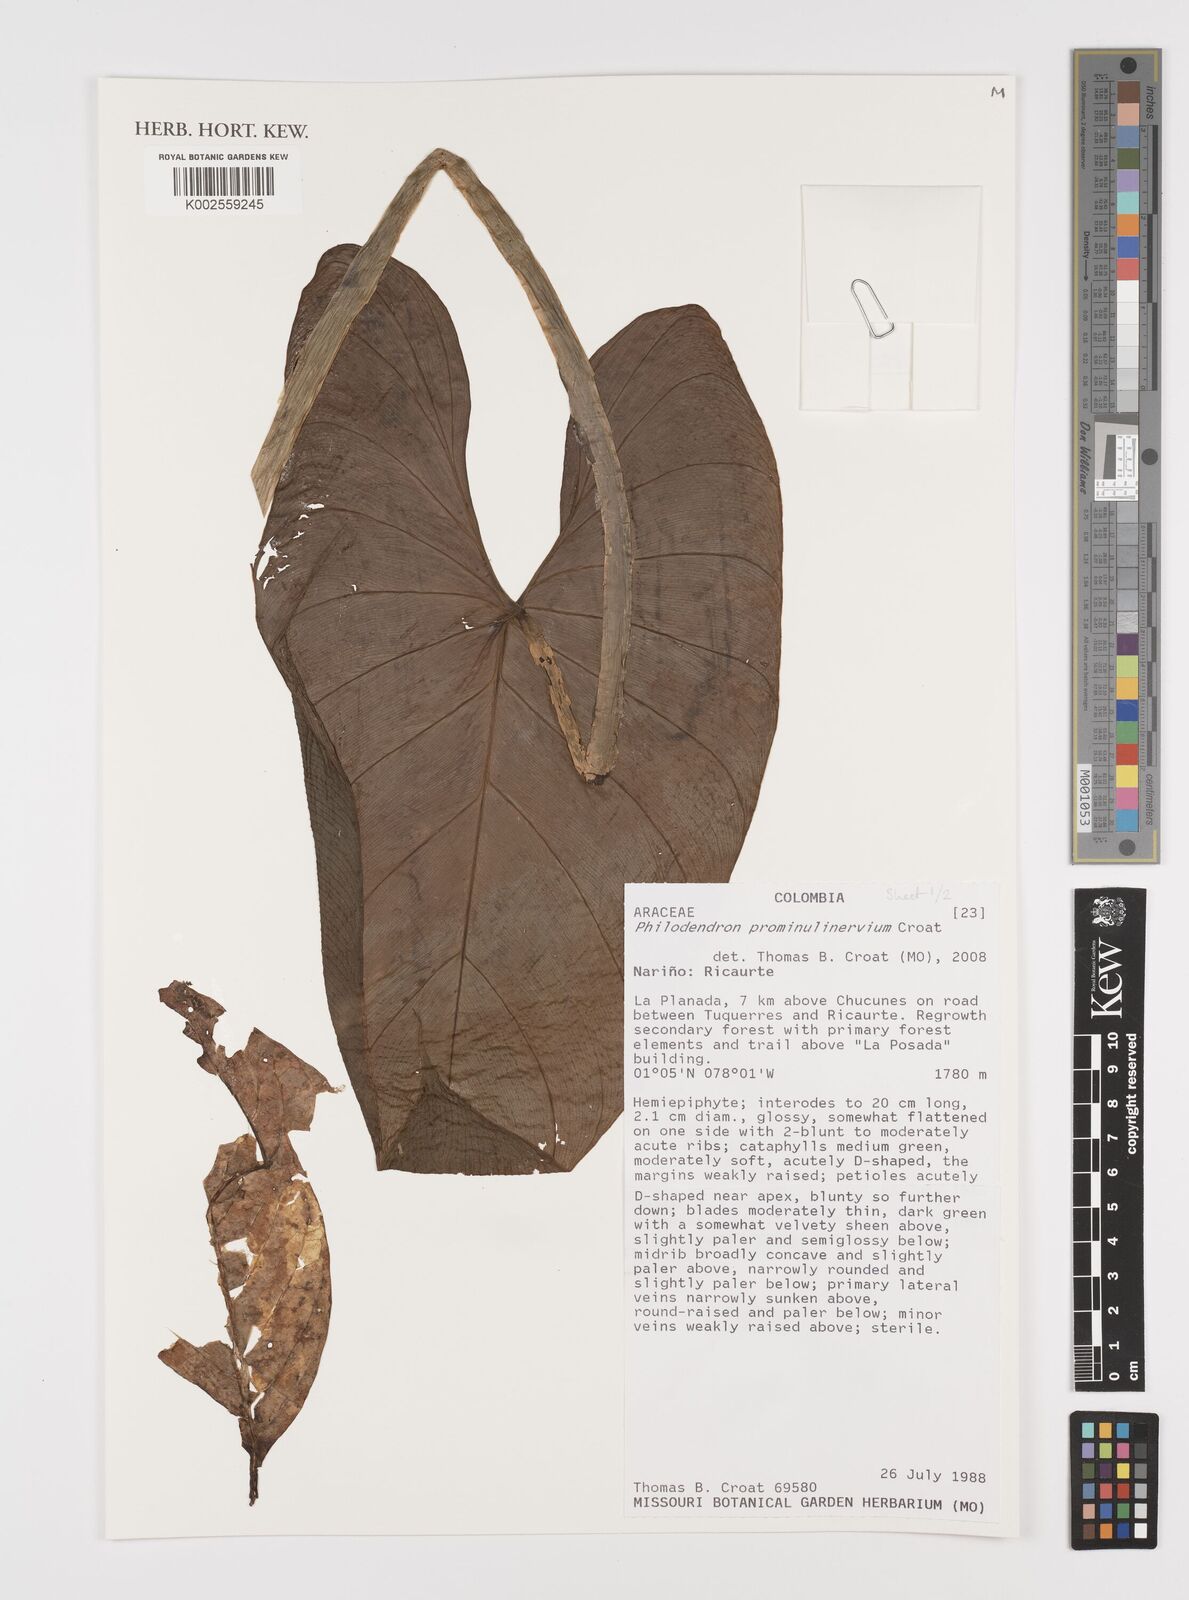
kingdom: Plantae
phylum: Tracheophyta
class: Liliopsida
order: Alismatales
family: Araceae
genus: Philodendron
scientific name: Philodendron prominulinervium
